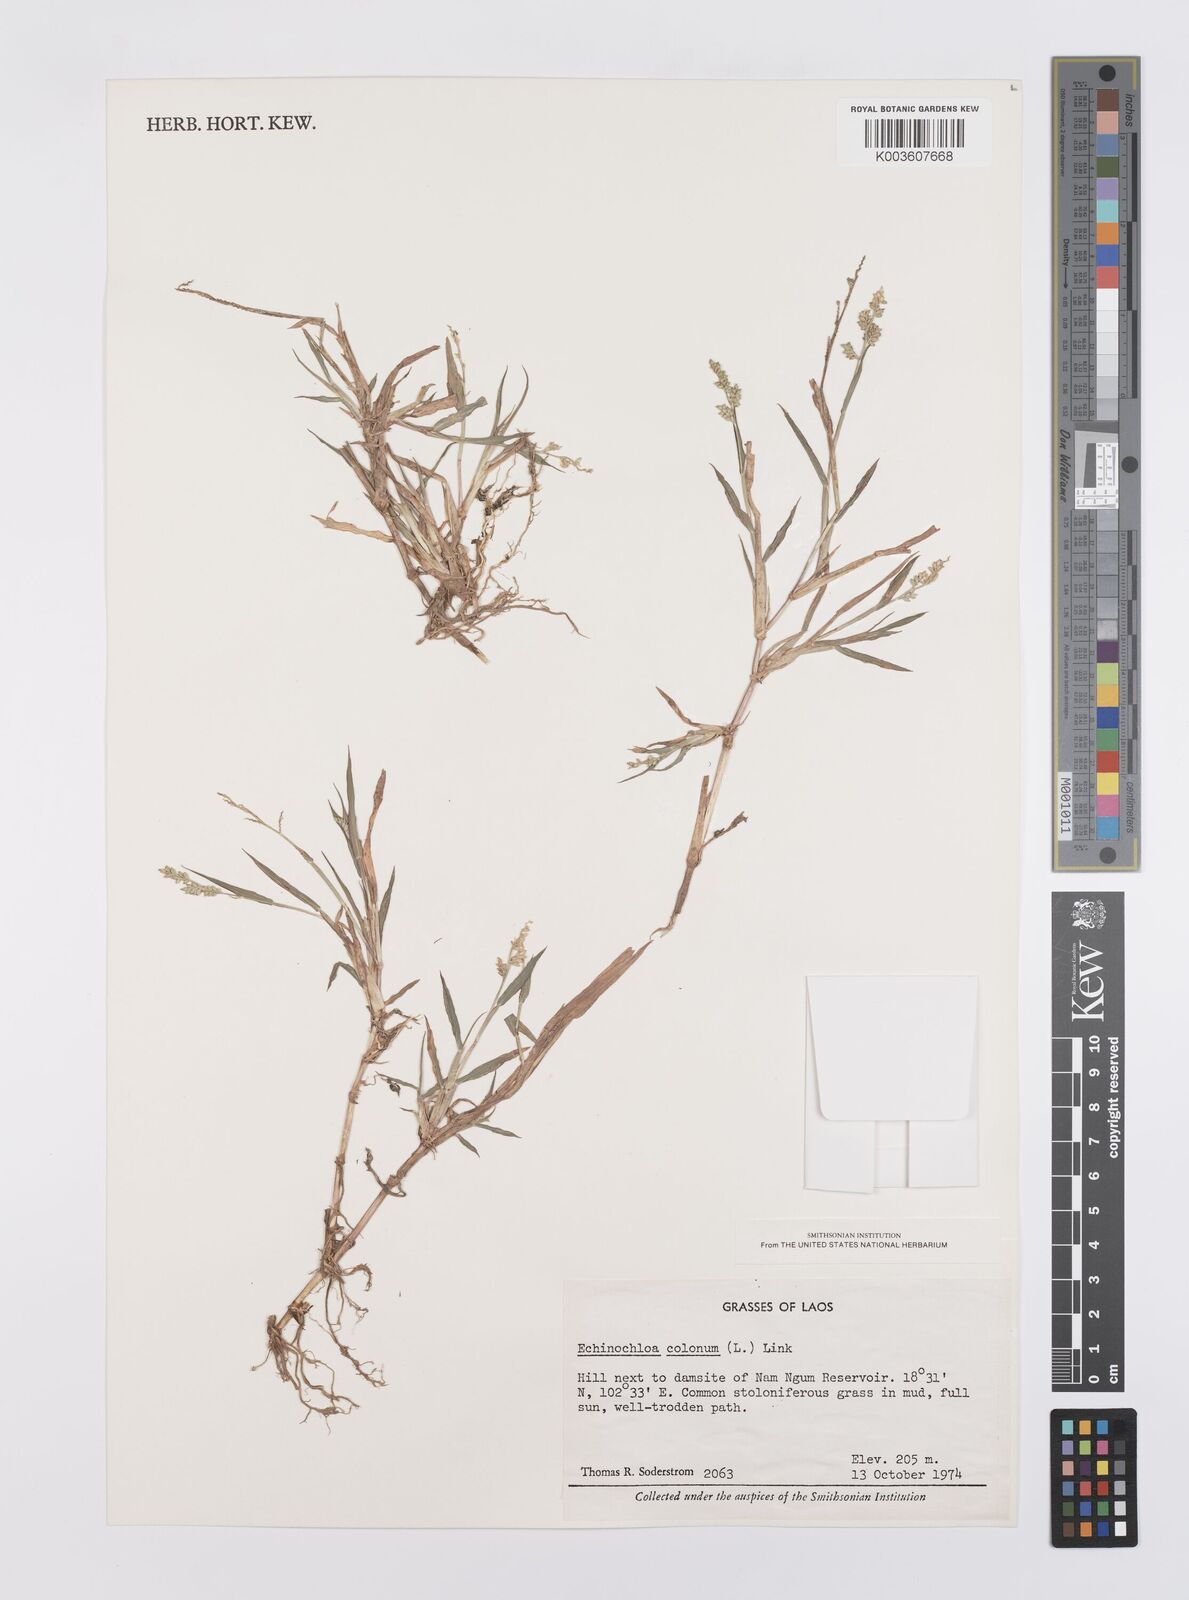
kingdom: Plantae
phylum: Tracheophyta
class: Liliopsida
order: Poales
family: Poaceae
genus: Echinochloa
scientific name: Echinochloa colonum
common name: Jungle rice
